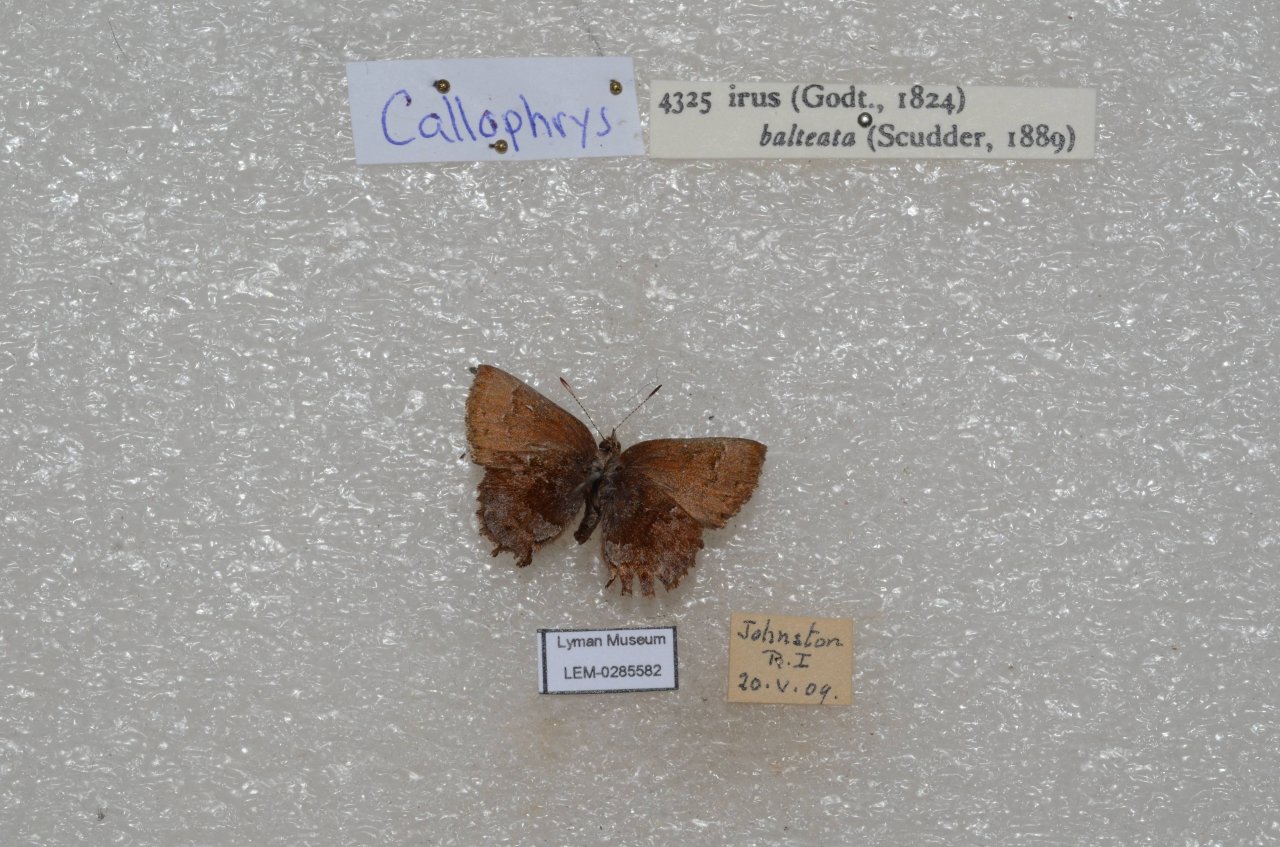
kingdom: Animalia
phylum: Arthropoda
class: Insecta
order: Lepidoptera
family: Lycaenidae
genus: Thecla
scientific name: Thecla irus
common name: Frosted Elfin
